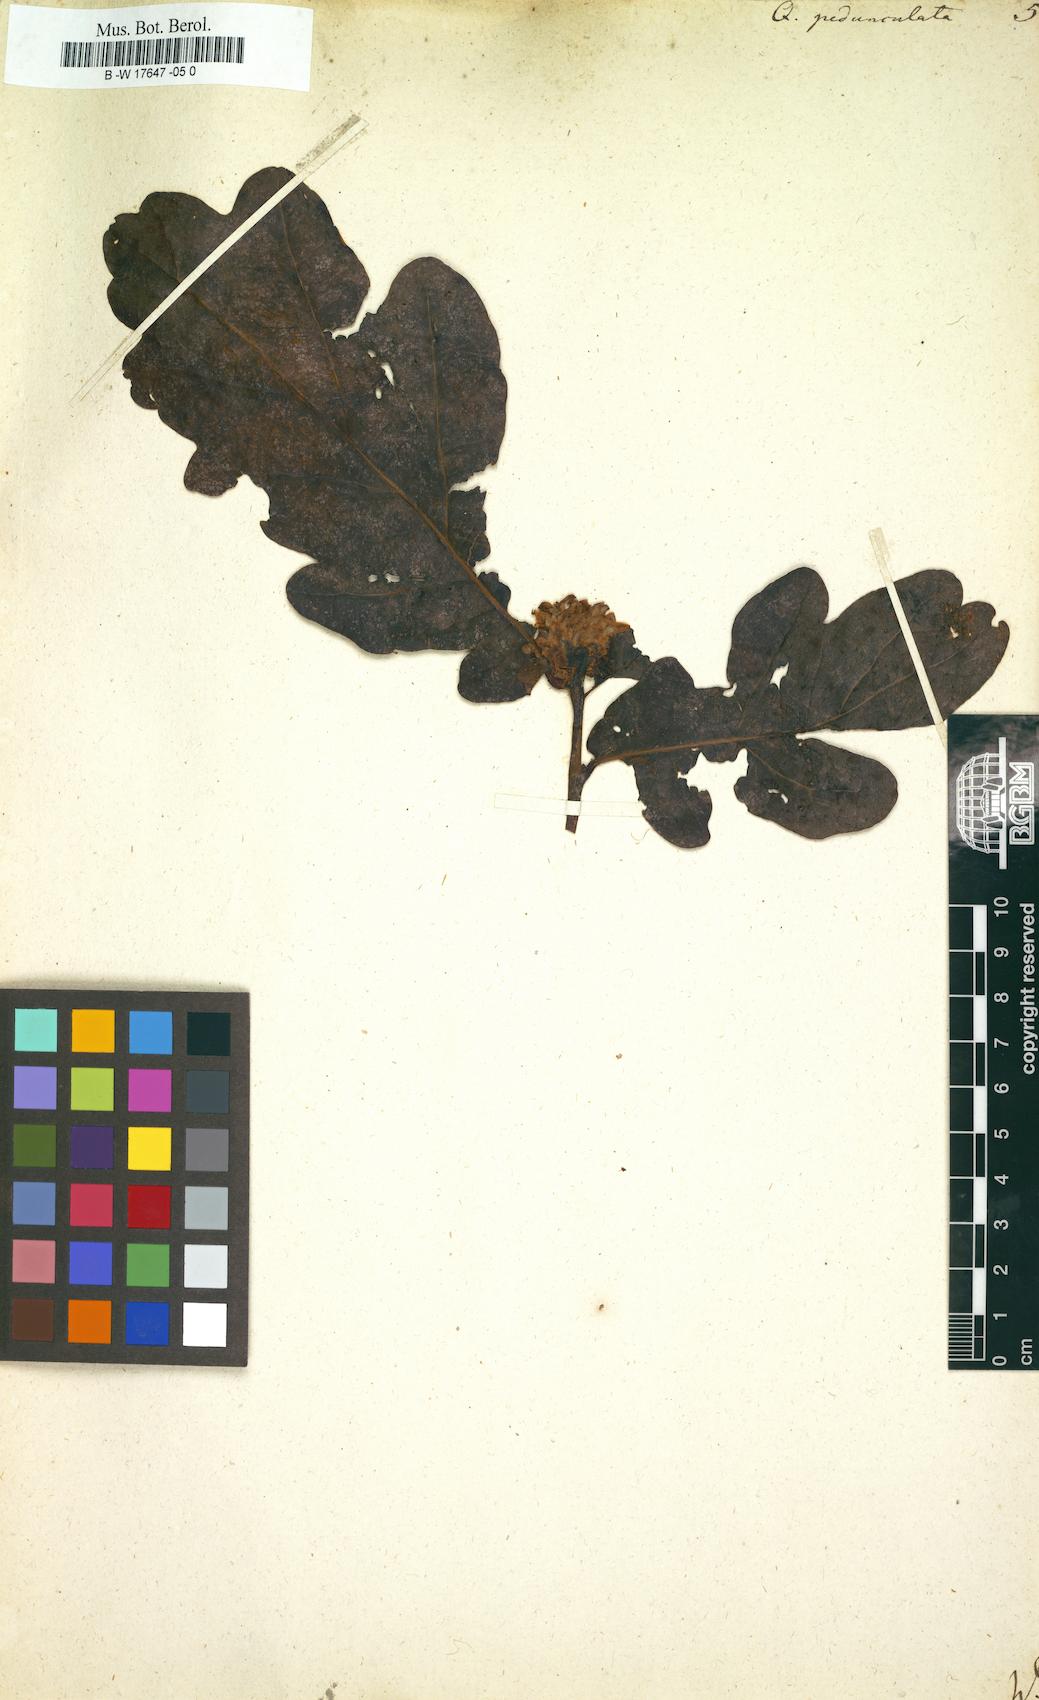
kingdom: Plantae
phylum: Tracheophyta
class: Magnoliopsida
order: Fagales
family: Fagaceae
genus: Quercus
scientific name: Quercus pedunculata
